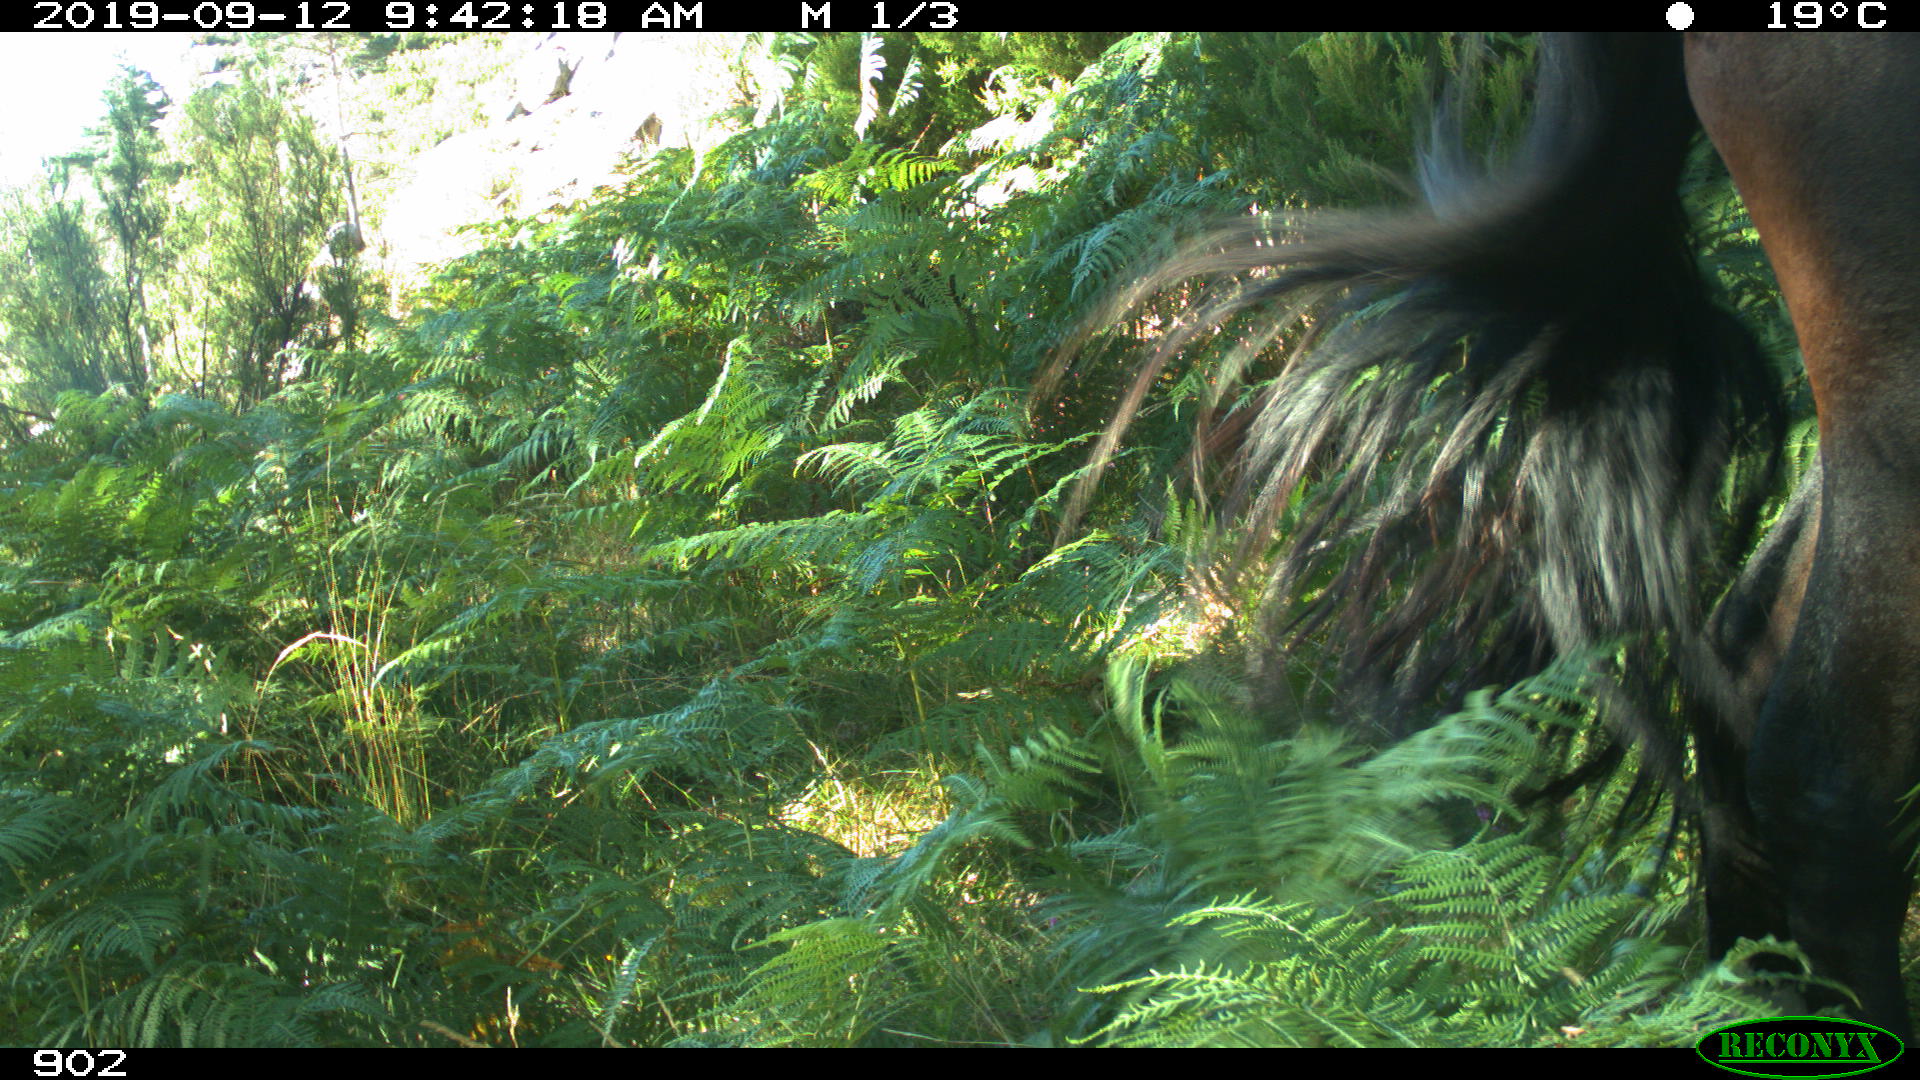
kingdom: Animalia
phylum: Chordata
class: Mammalia
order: Perissodactyla
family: Equidae
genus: Equus
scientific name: Equus caballus
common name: Horse
